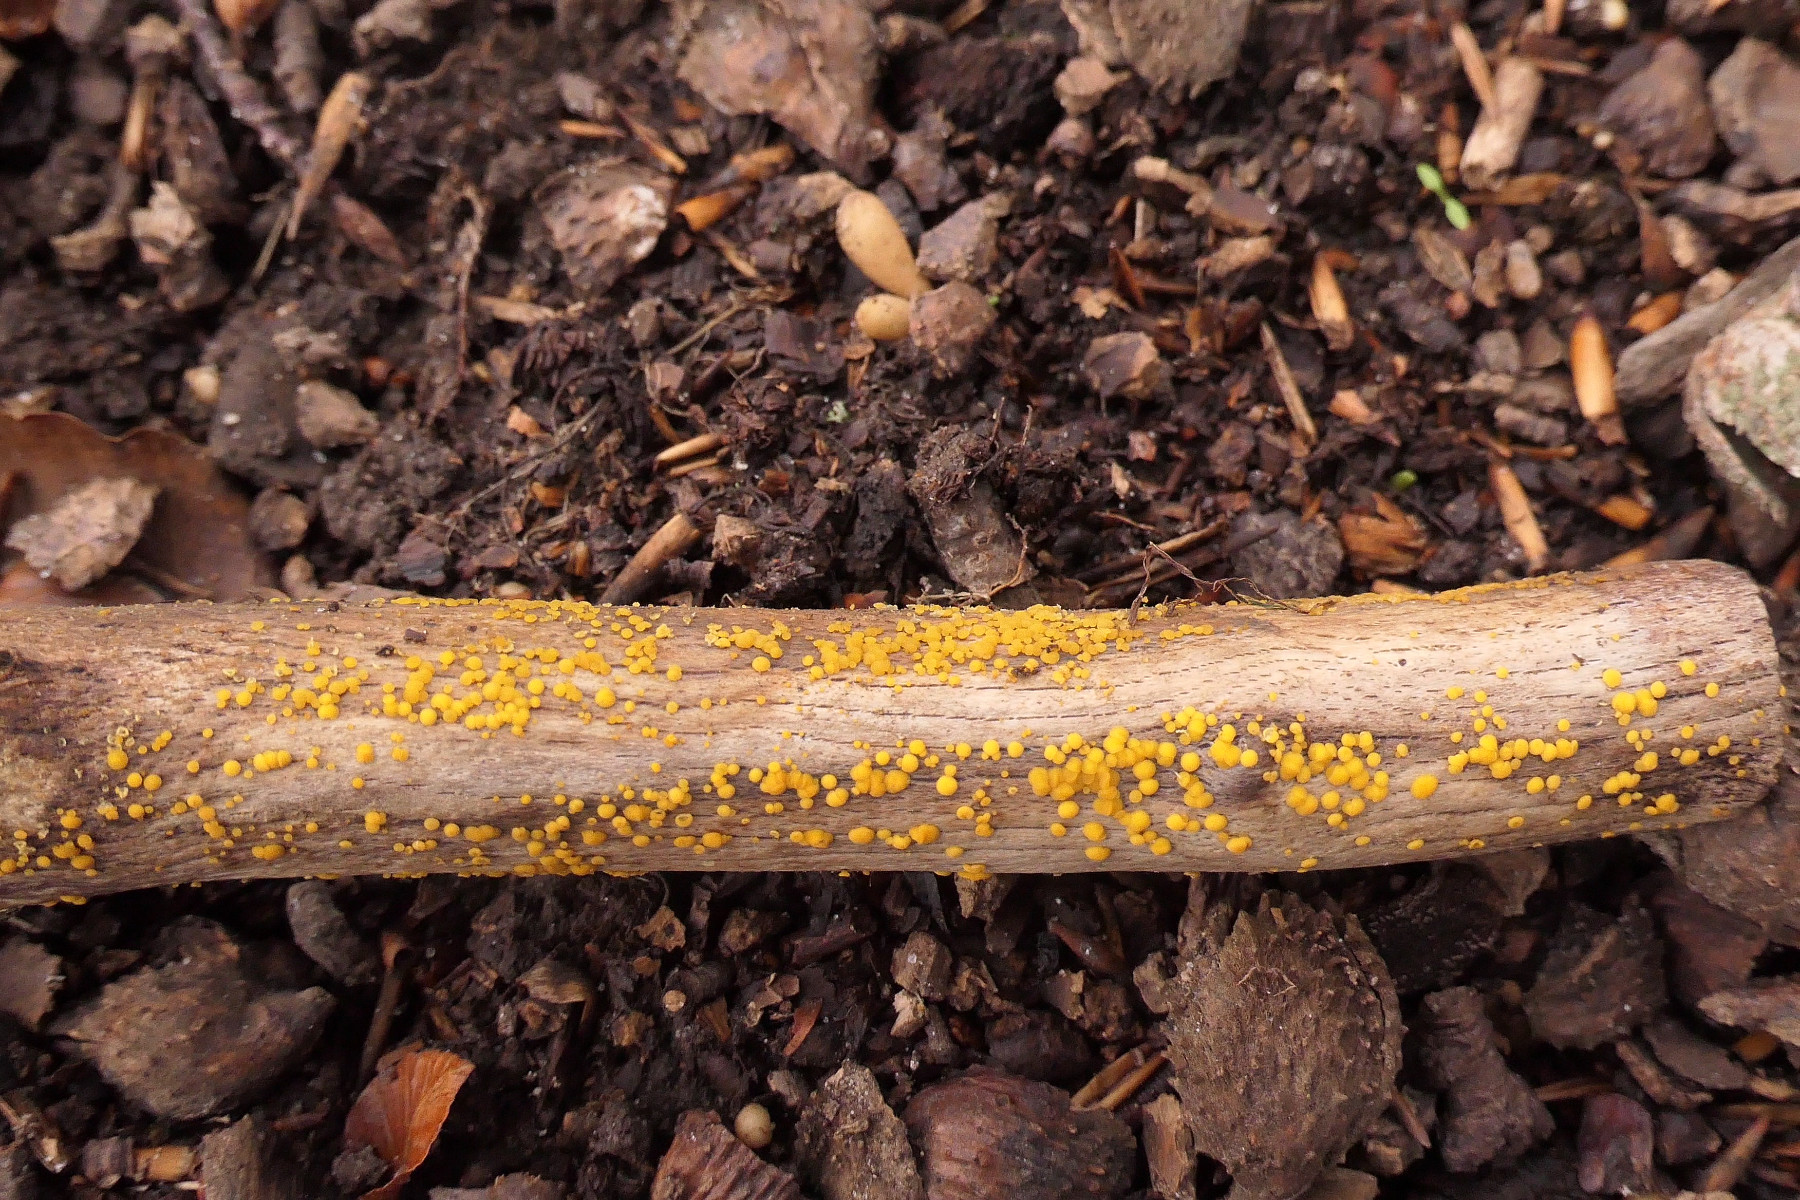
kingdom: Fungi
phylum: Ascomycota
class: Leotiomycetes
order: Helotiales
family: Pezizellaceae
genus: Calycina
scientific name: Calycina citrina
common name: almindelig gulskive
